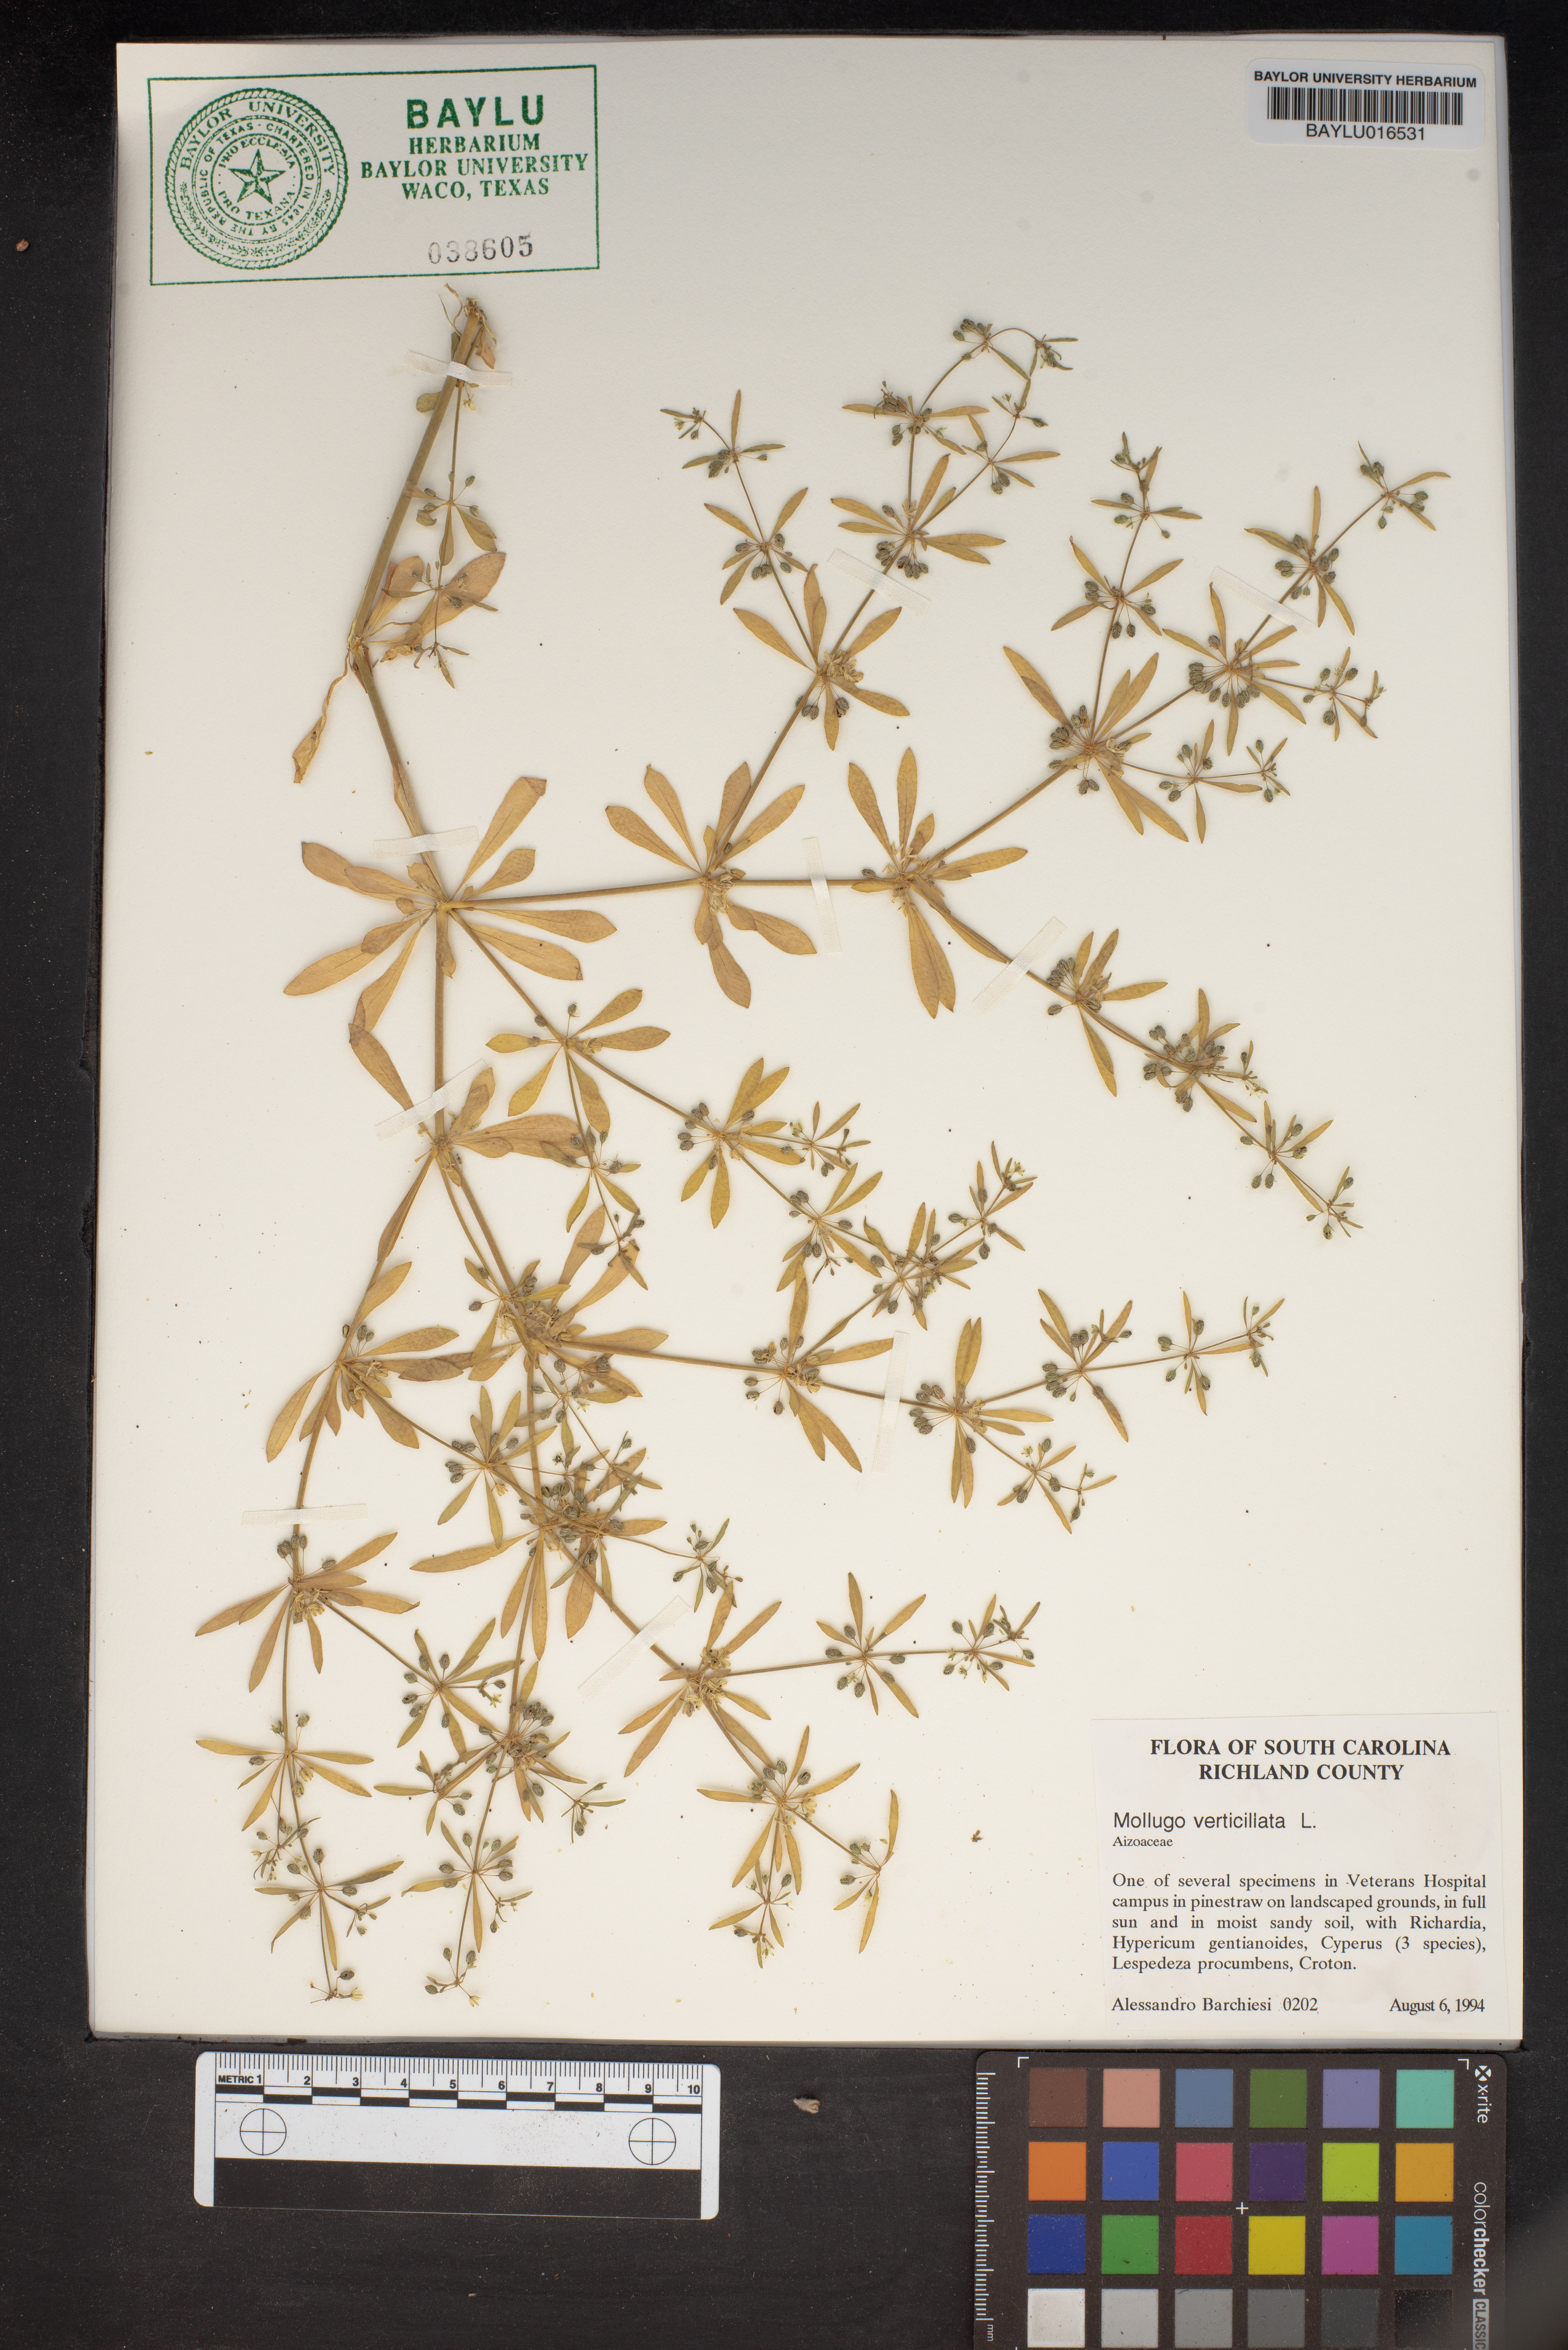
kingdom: Plantae
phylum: Tracheophyta
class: Magnoliopsida
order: Caryophyllales
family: Molluginaceae
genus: Mollugo
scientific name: Mollugo verticillata
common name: Green carpetweed
